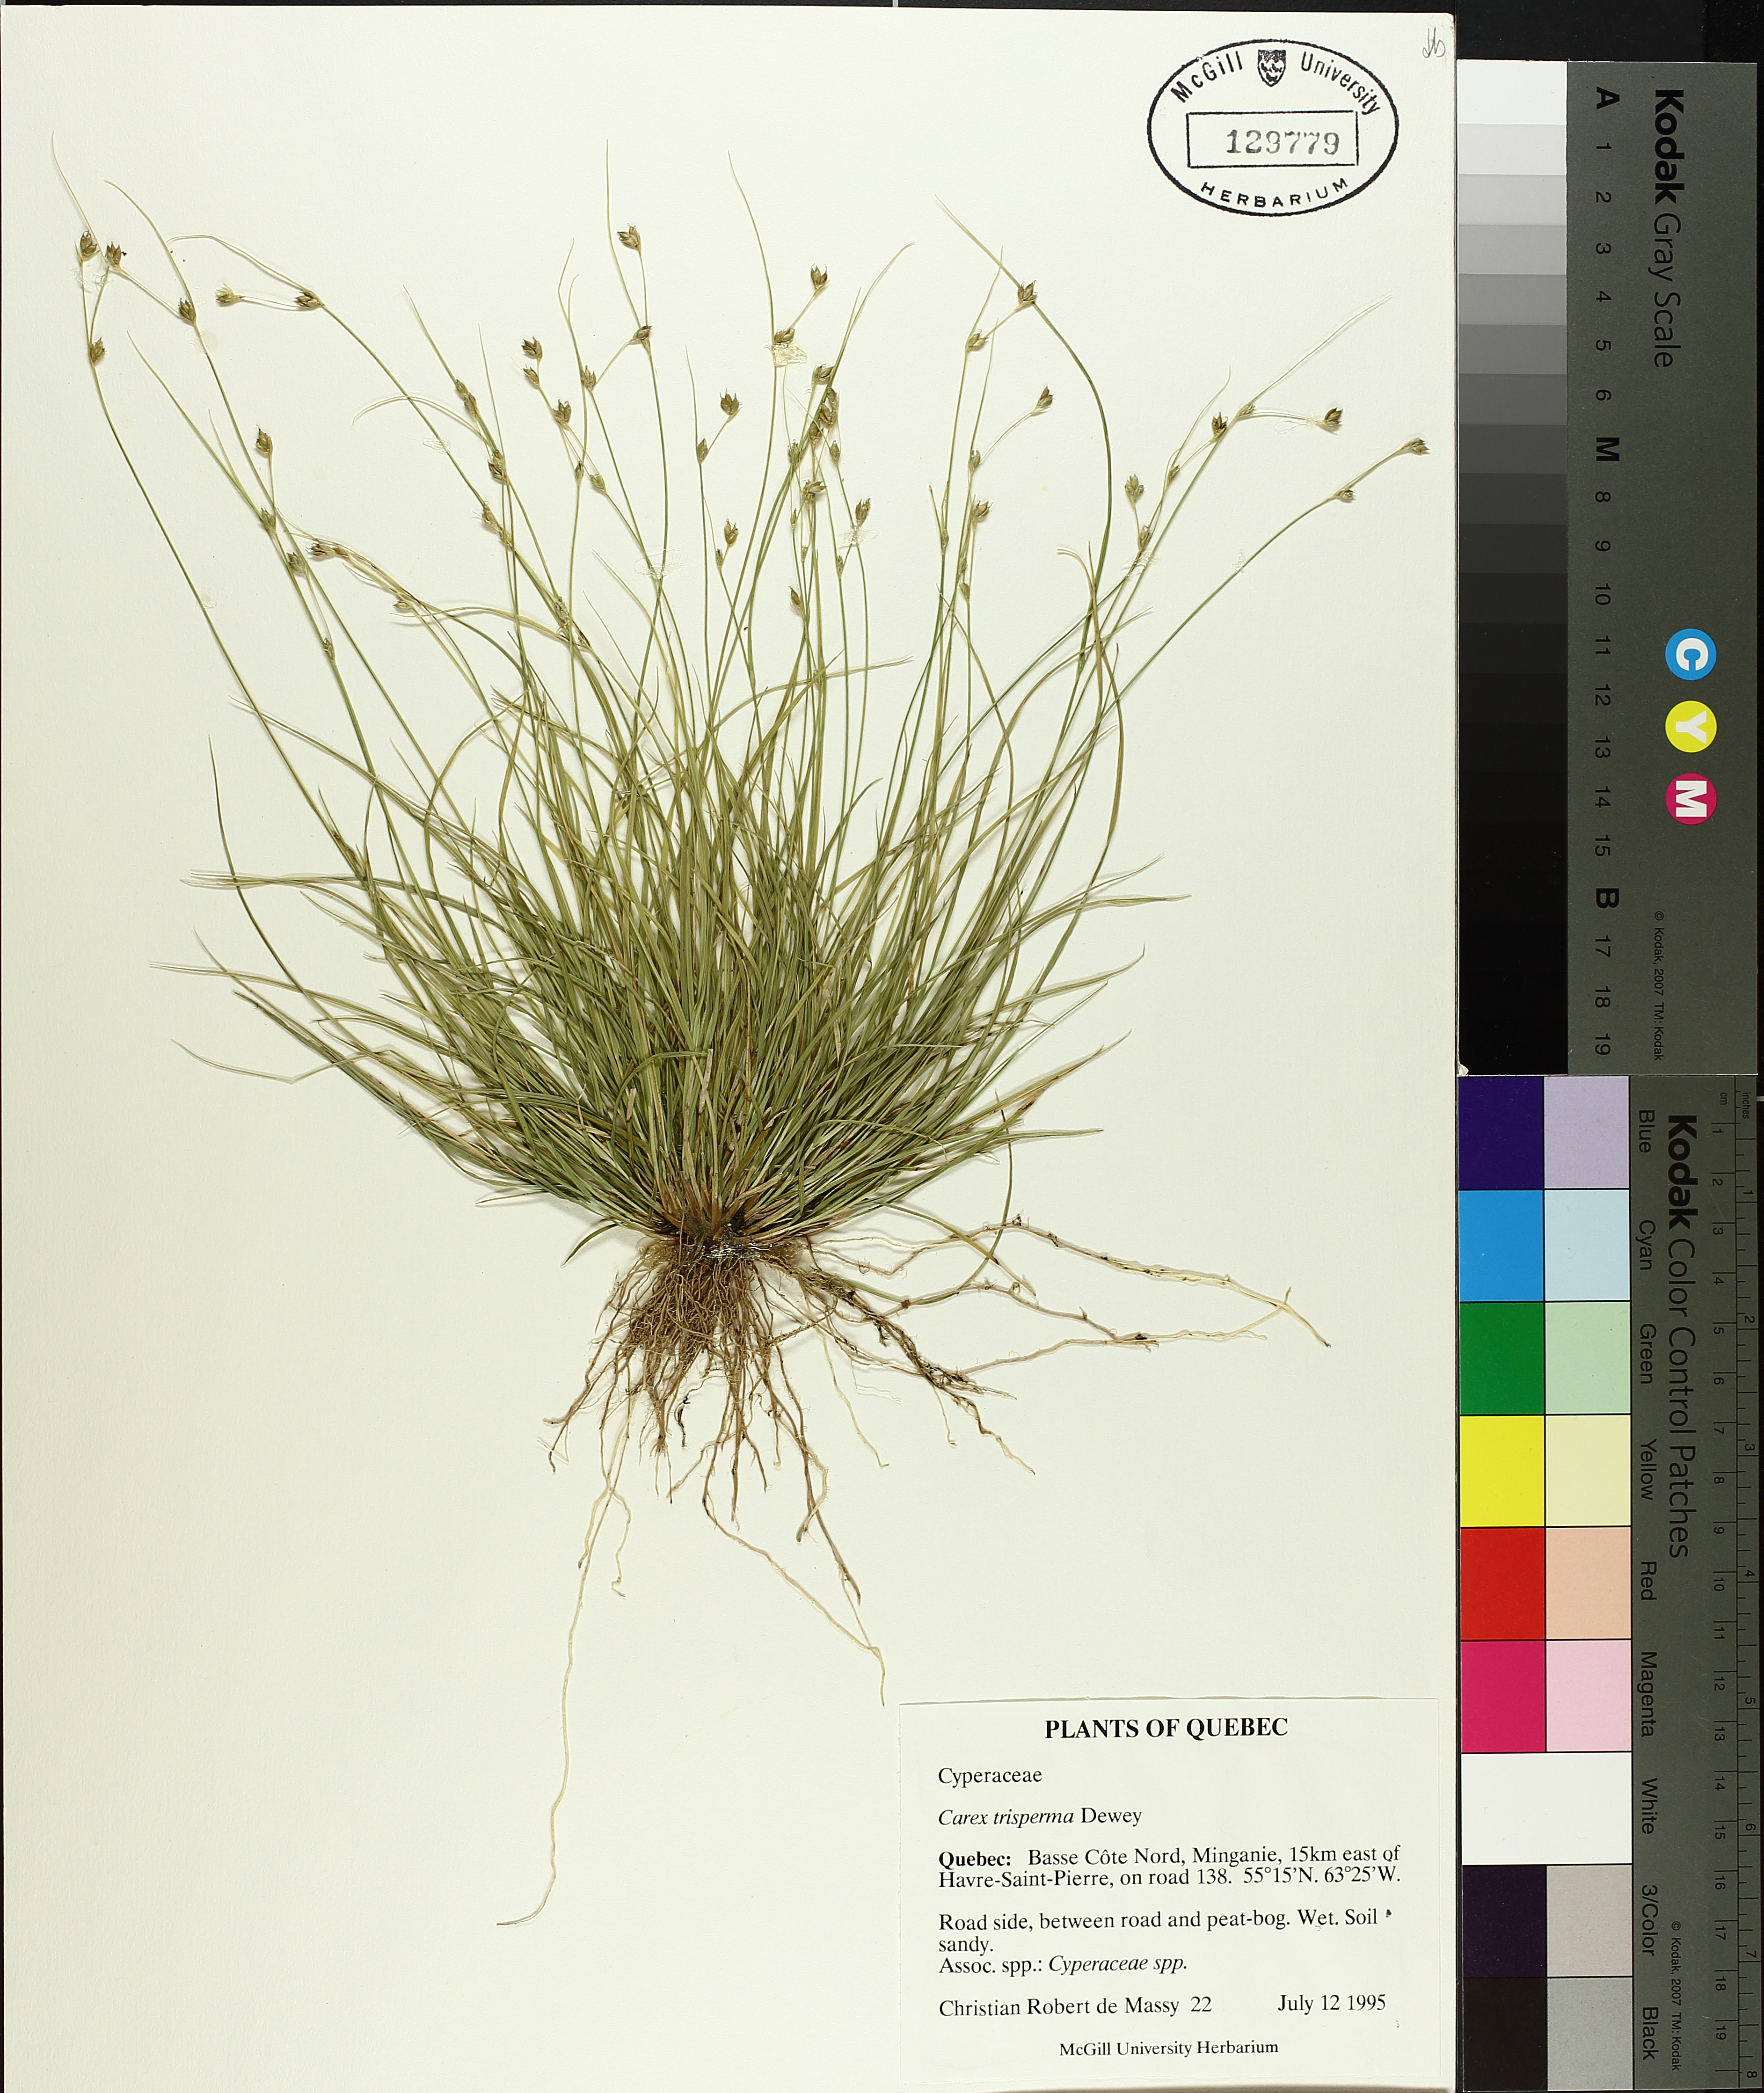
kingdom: Plantae
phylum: Tracheophyta
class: Liliopsida
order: Poales
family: Cyperaceae
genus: Carex
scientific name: Carex trisperma
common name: Three-seeded sedge
